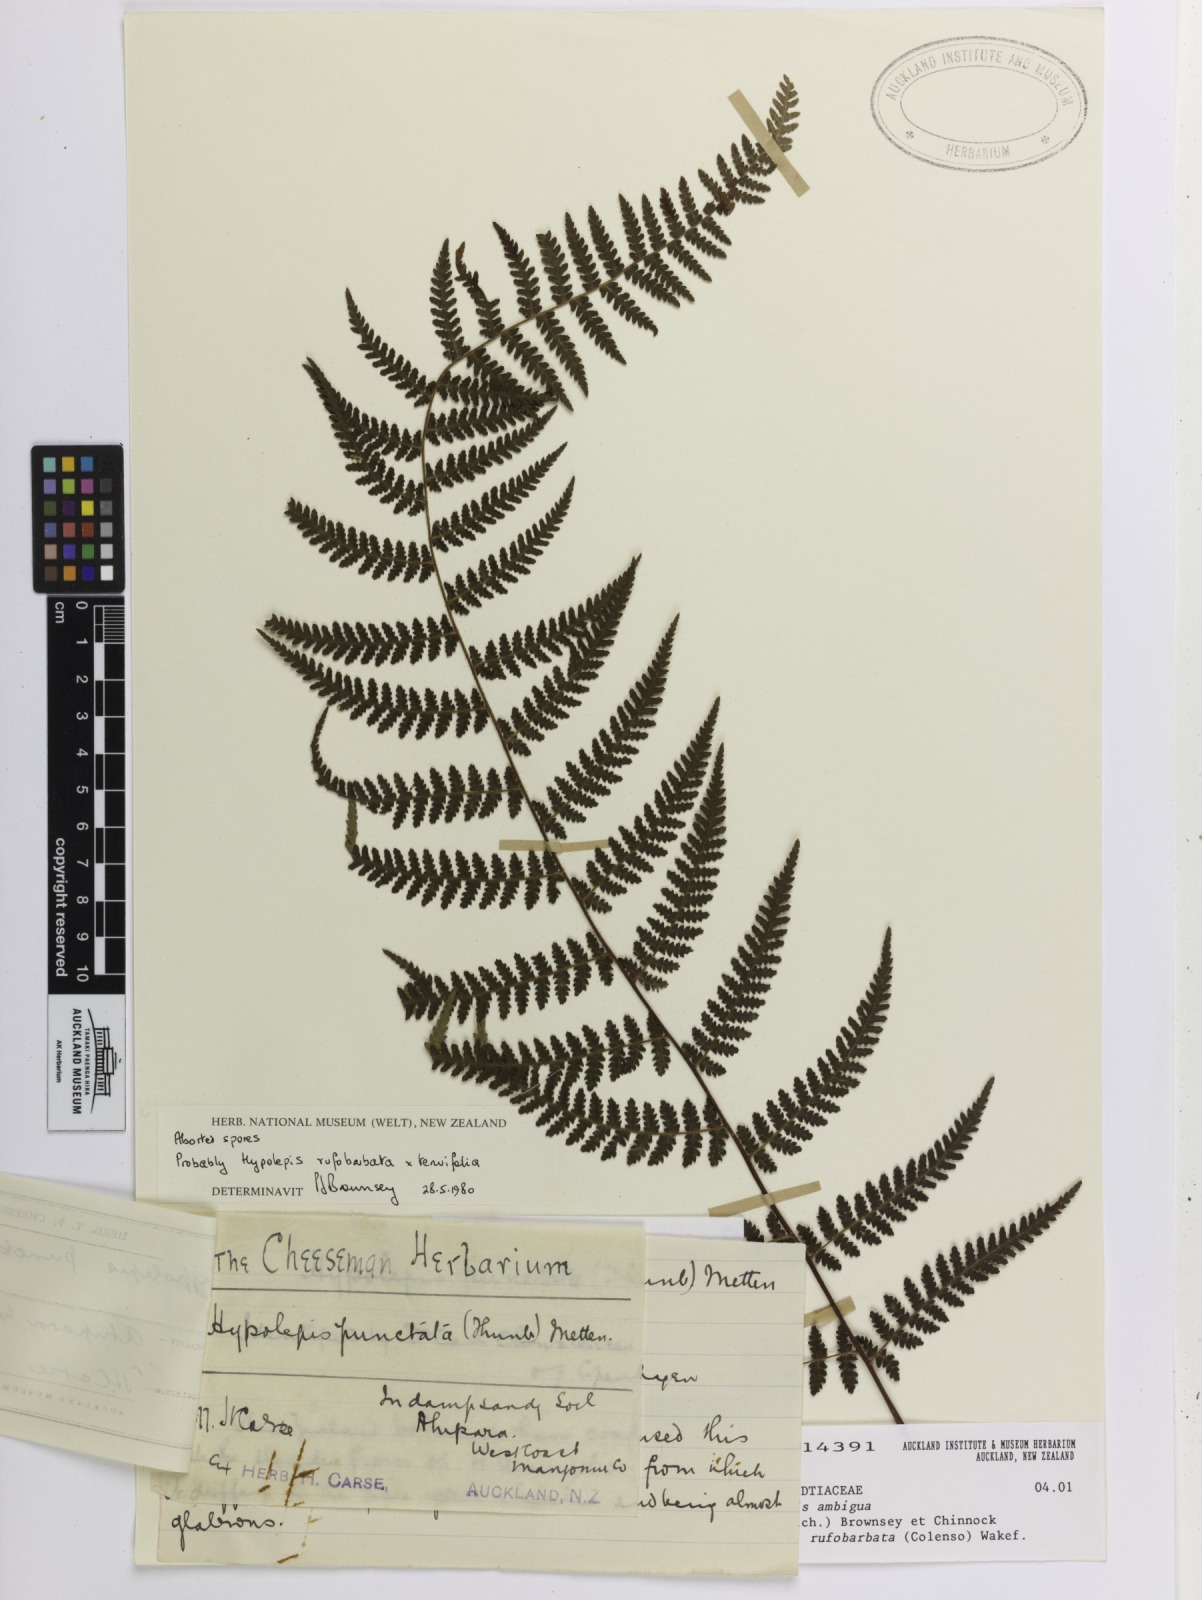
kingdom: Plantae
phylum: Tracheophyta
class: Polypodiopsida
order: Polypodiales
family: Dennstaedtiaceae
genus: Hypolepis
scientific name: Hypolepis
